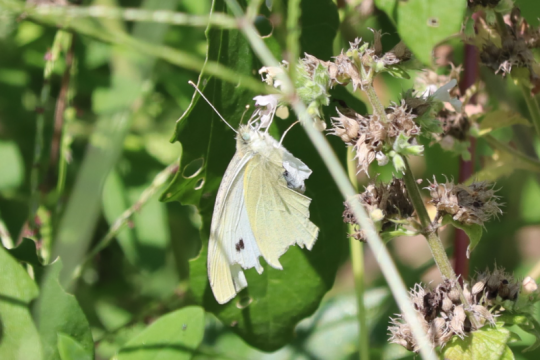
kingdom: Animalia
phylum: Arthropoda
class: Insecta
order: Lepidoptera
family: Pieridae
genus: Pieris
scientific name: Pieris rapae
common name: Cabbage White
